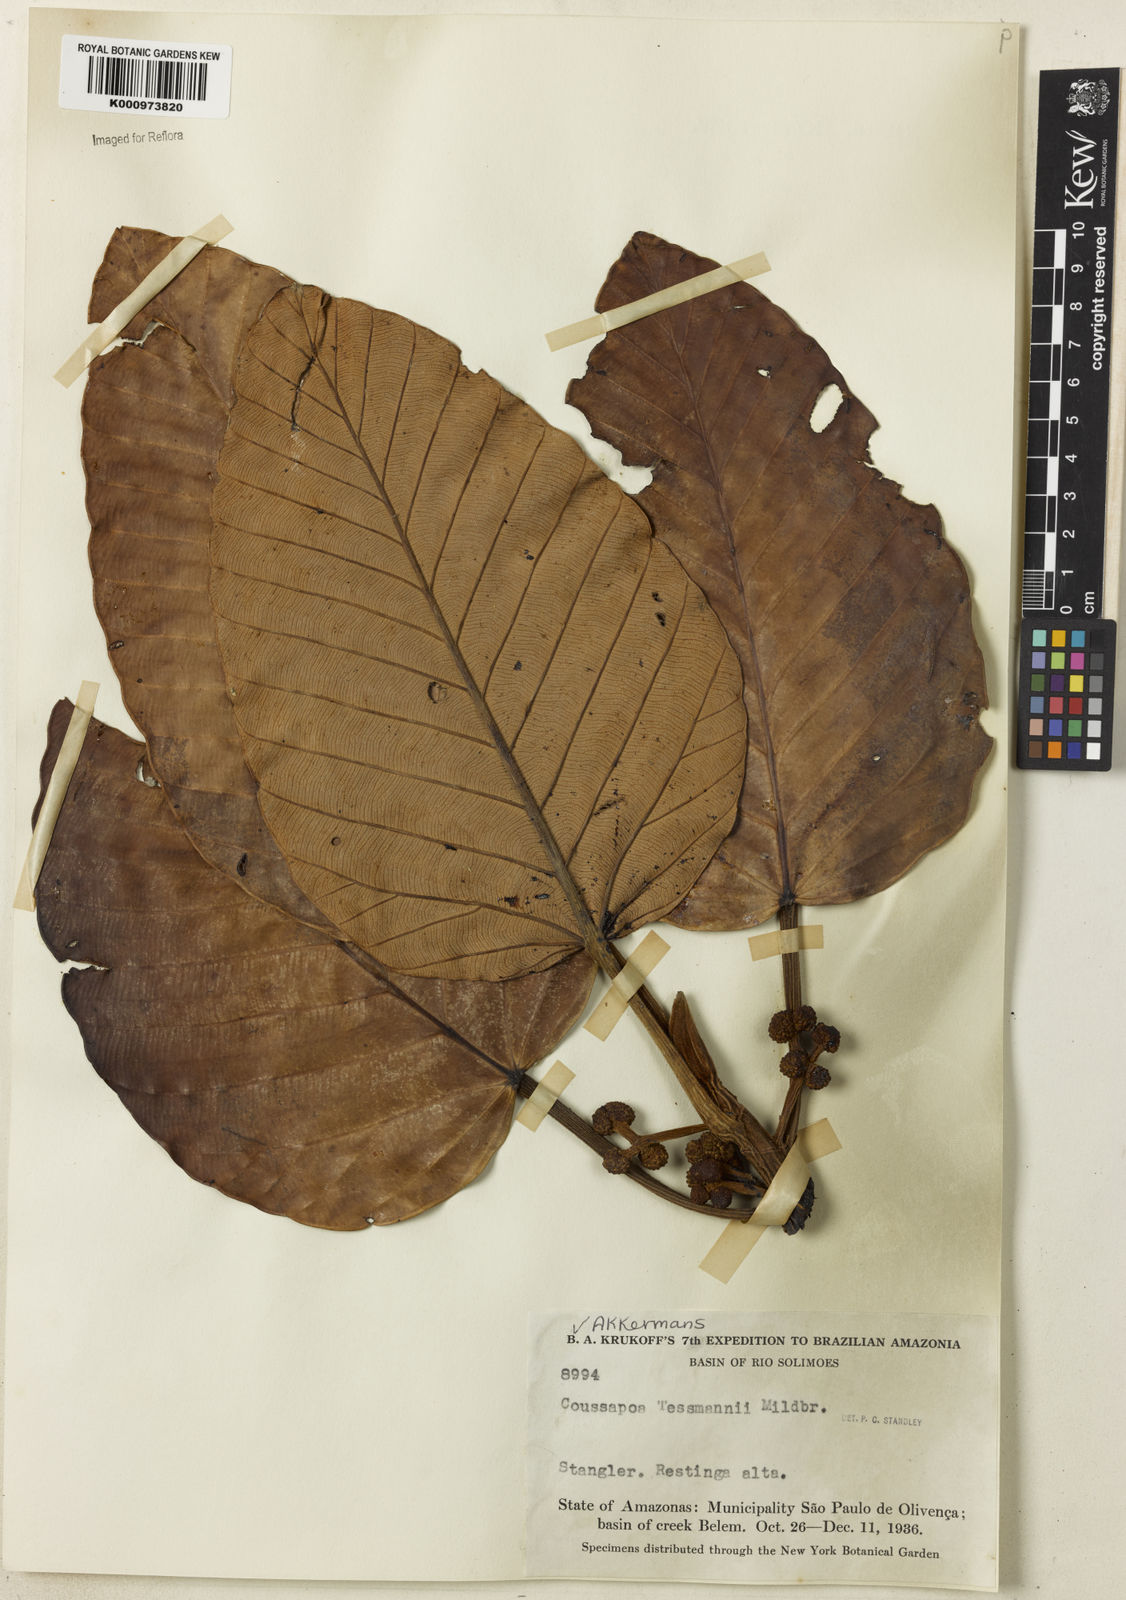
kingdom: Plantae
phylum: Tracheophyta
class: Magnoliopsida
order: Rosales
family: Urticaceae
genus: Coussapoa
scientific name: Coussapoa tessmannii
